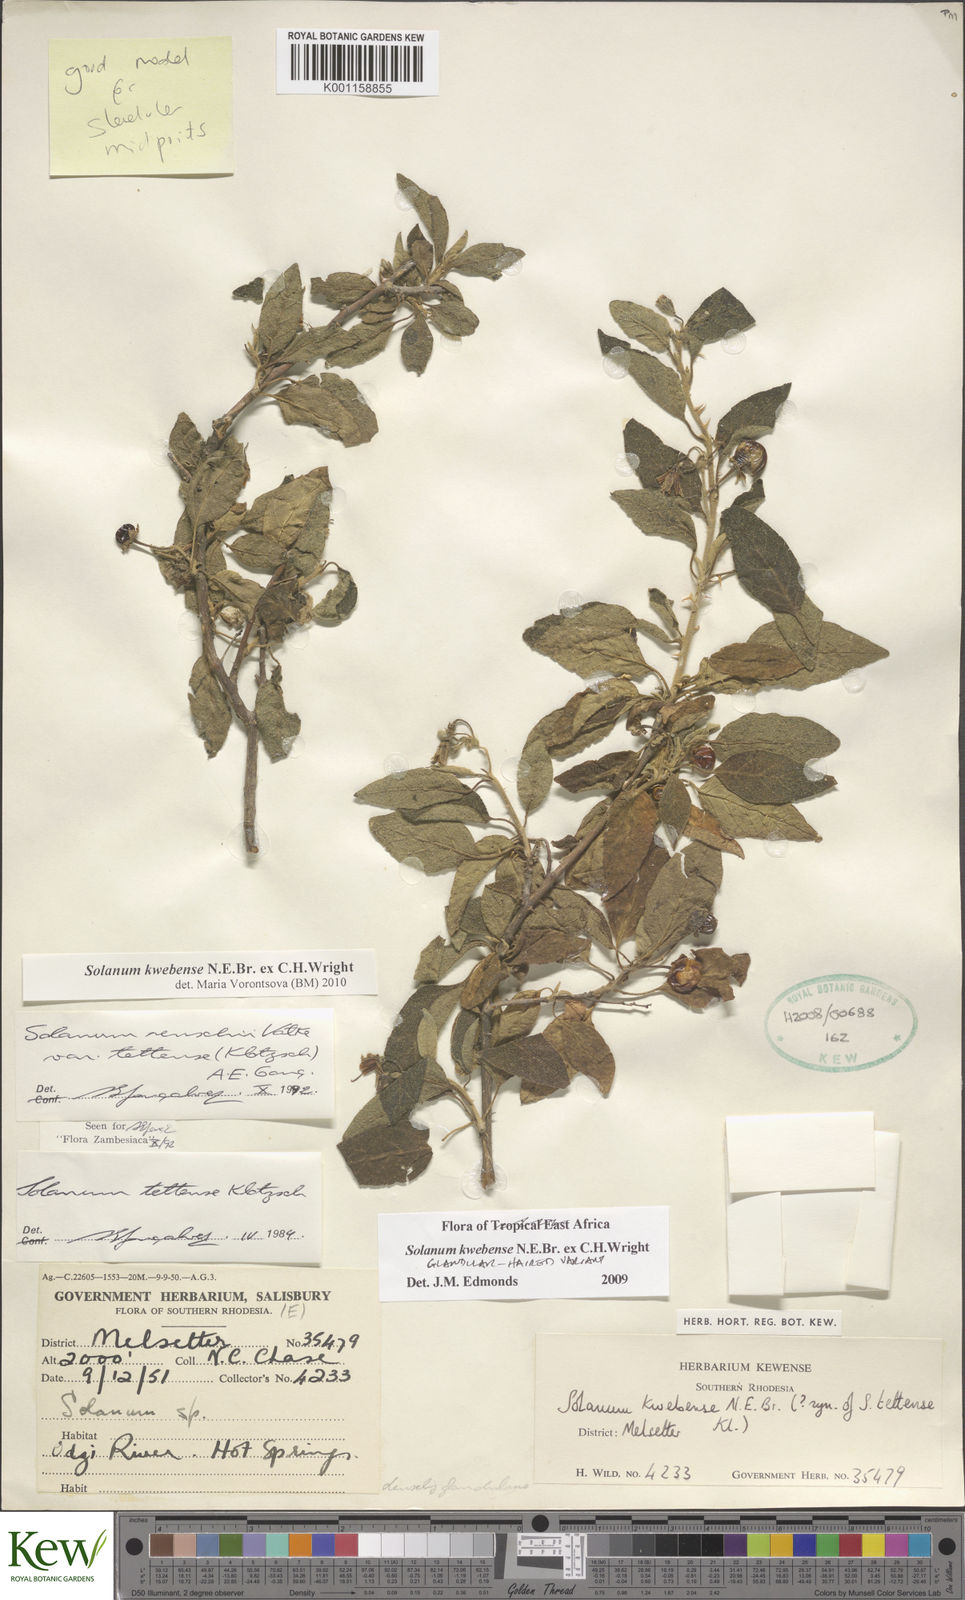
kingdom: Plantae
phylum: Tracheophyta
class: Magnoliopsida
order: Solanales
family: Solanaceae
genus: Solanum
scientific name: Solanum tettense
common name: Mozambique bitter apple
